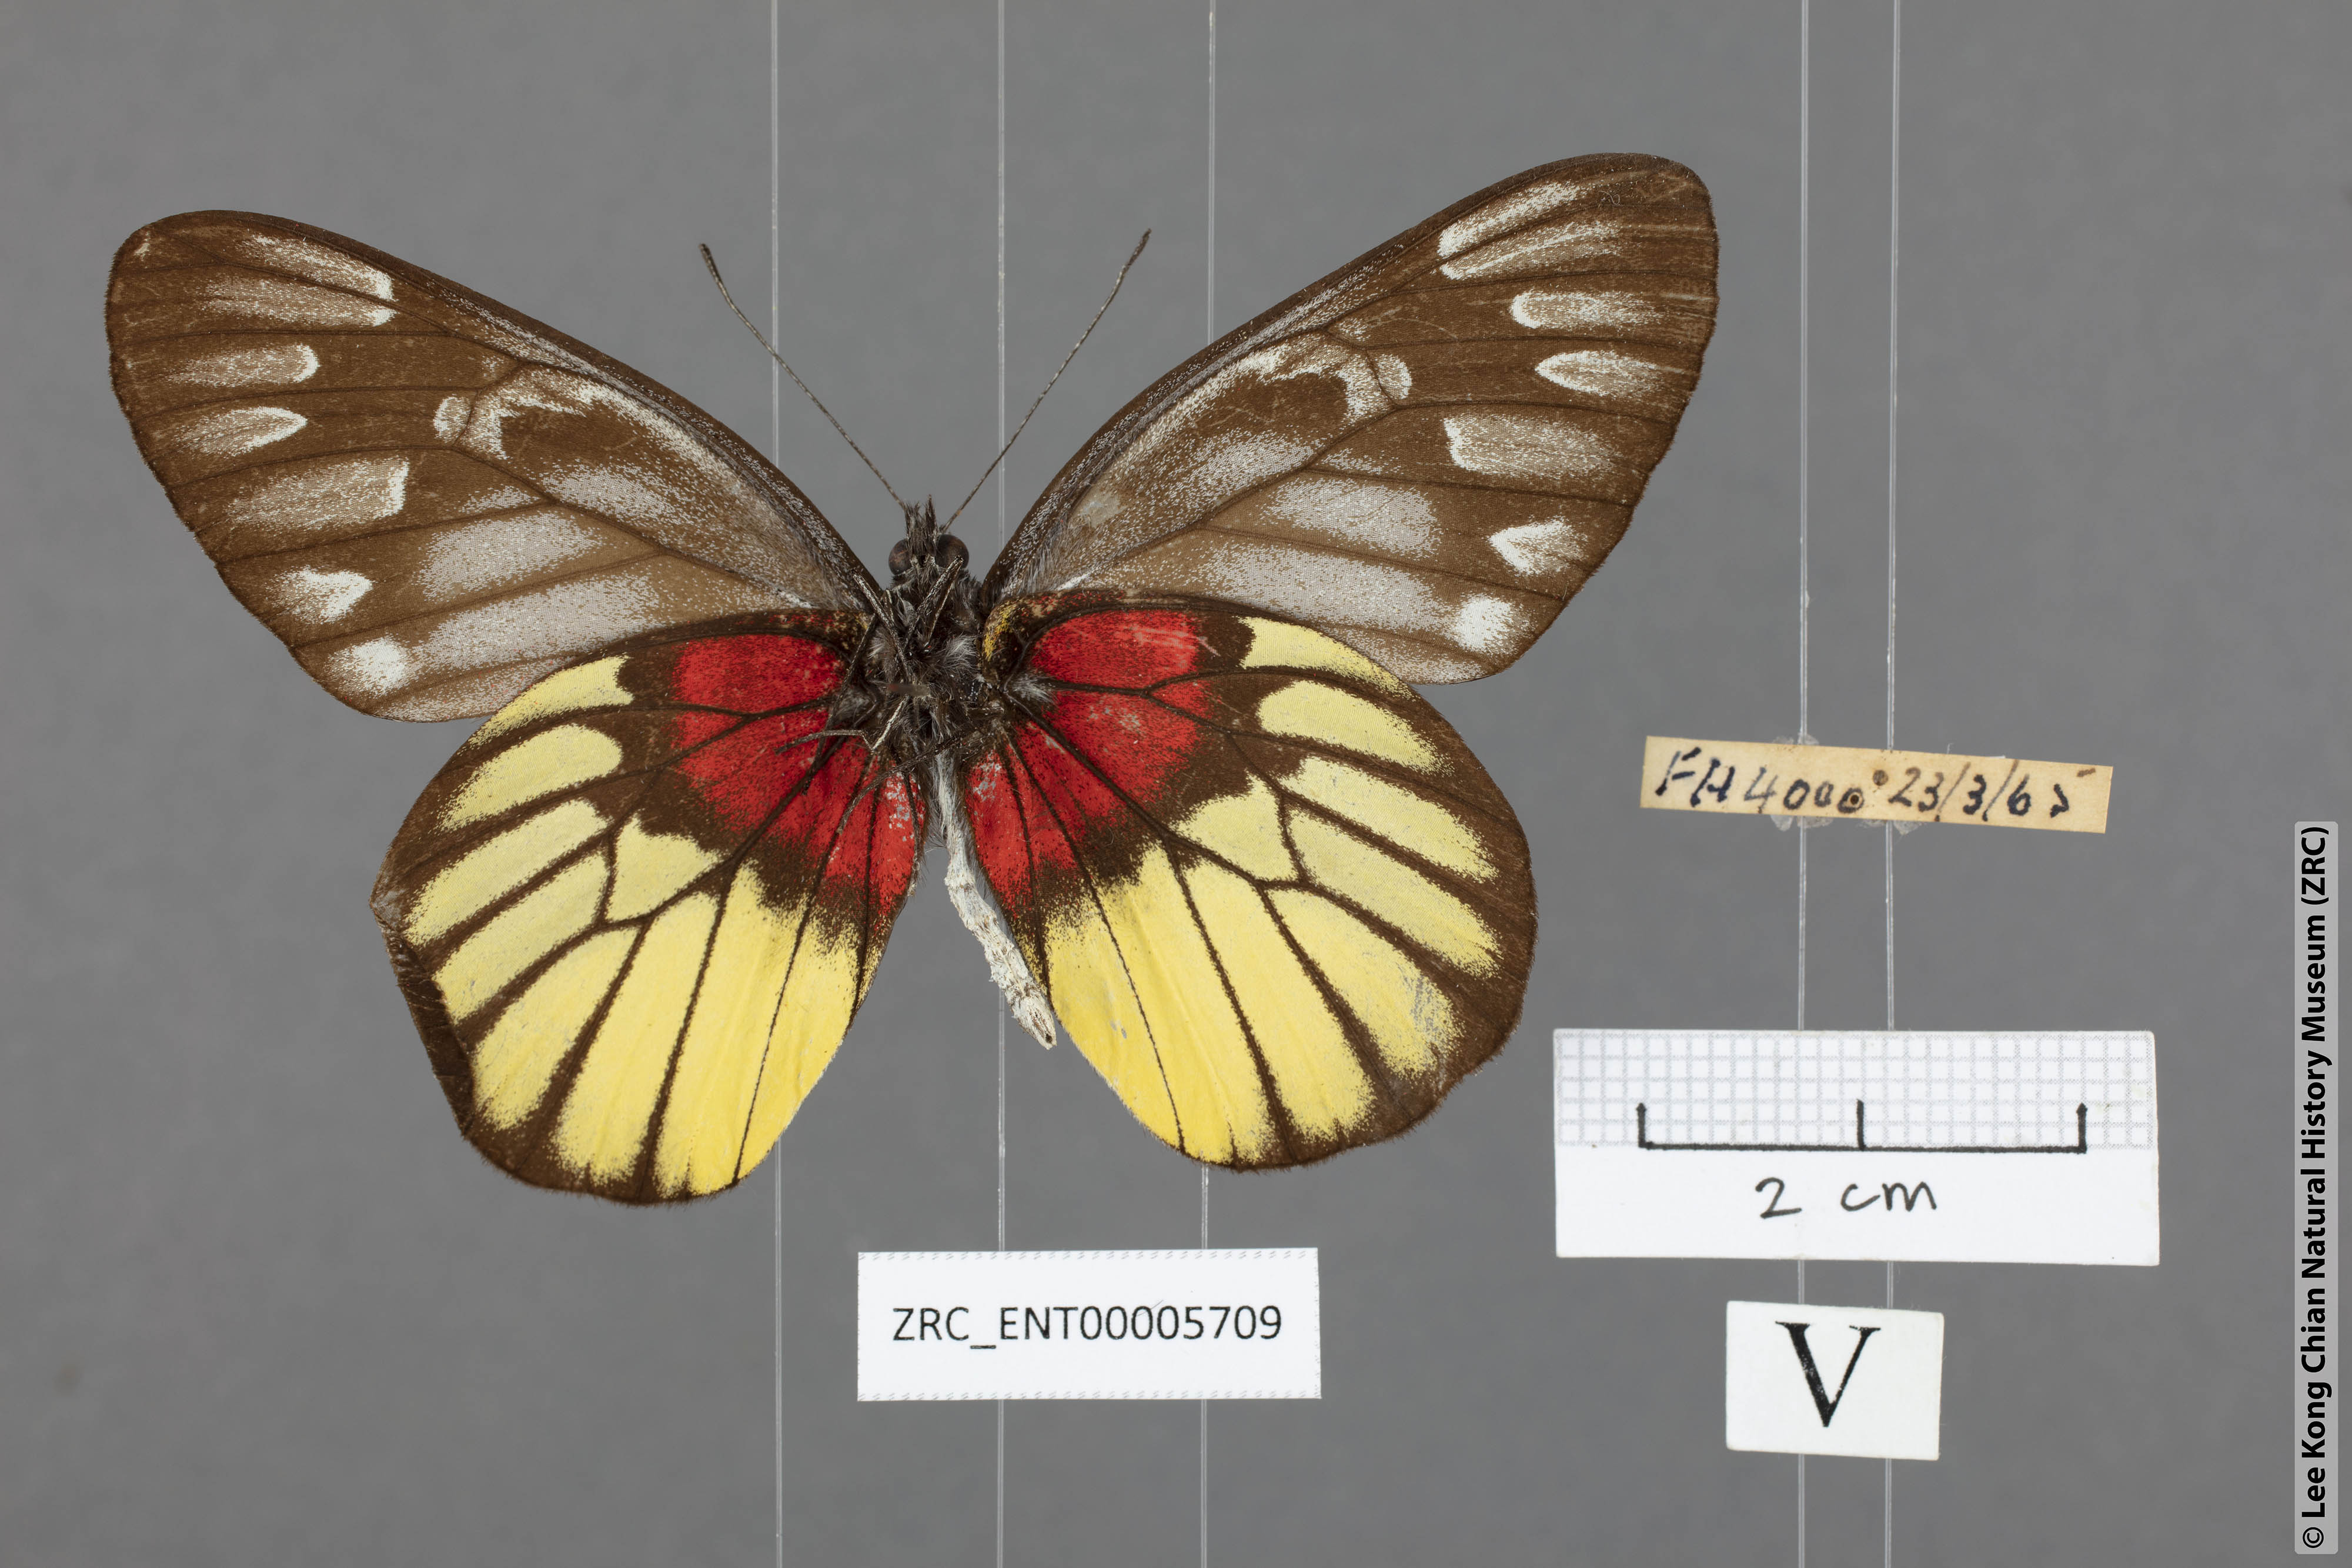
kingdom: Animalia
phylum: Arthropoda
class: Insecta
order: Lepidoptera
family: Pieridae
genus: Delias
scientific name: Delias ninus
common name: Malayan jezebel
